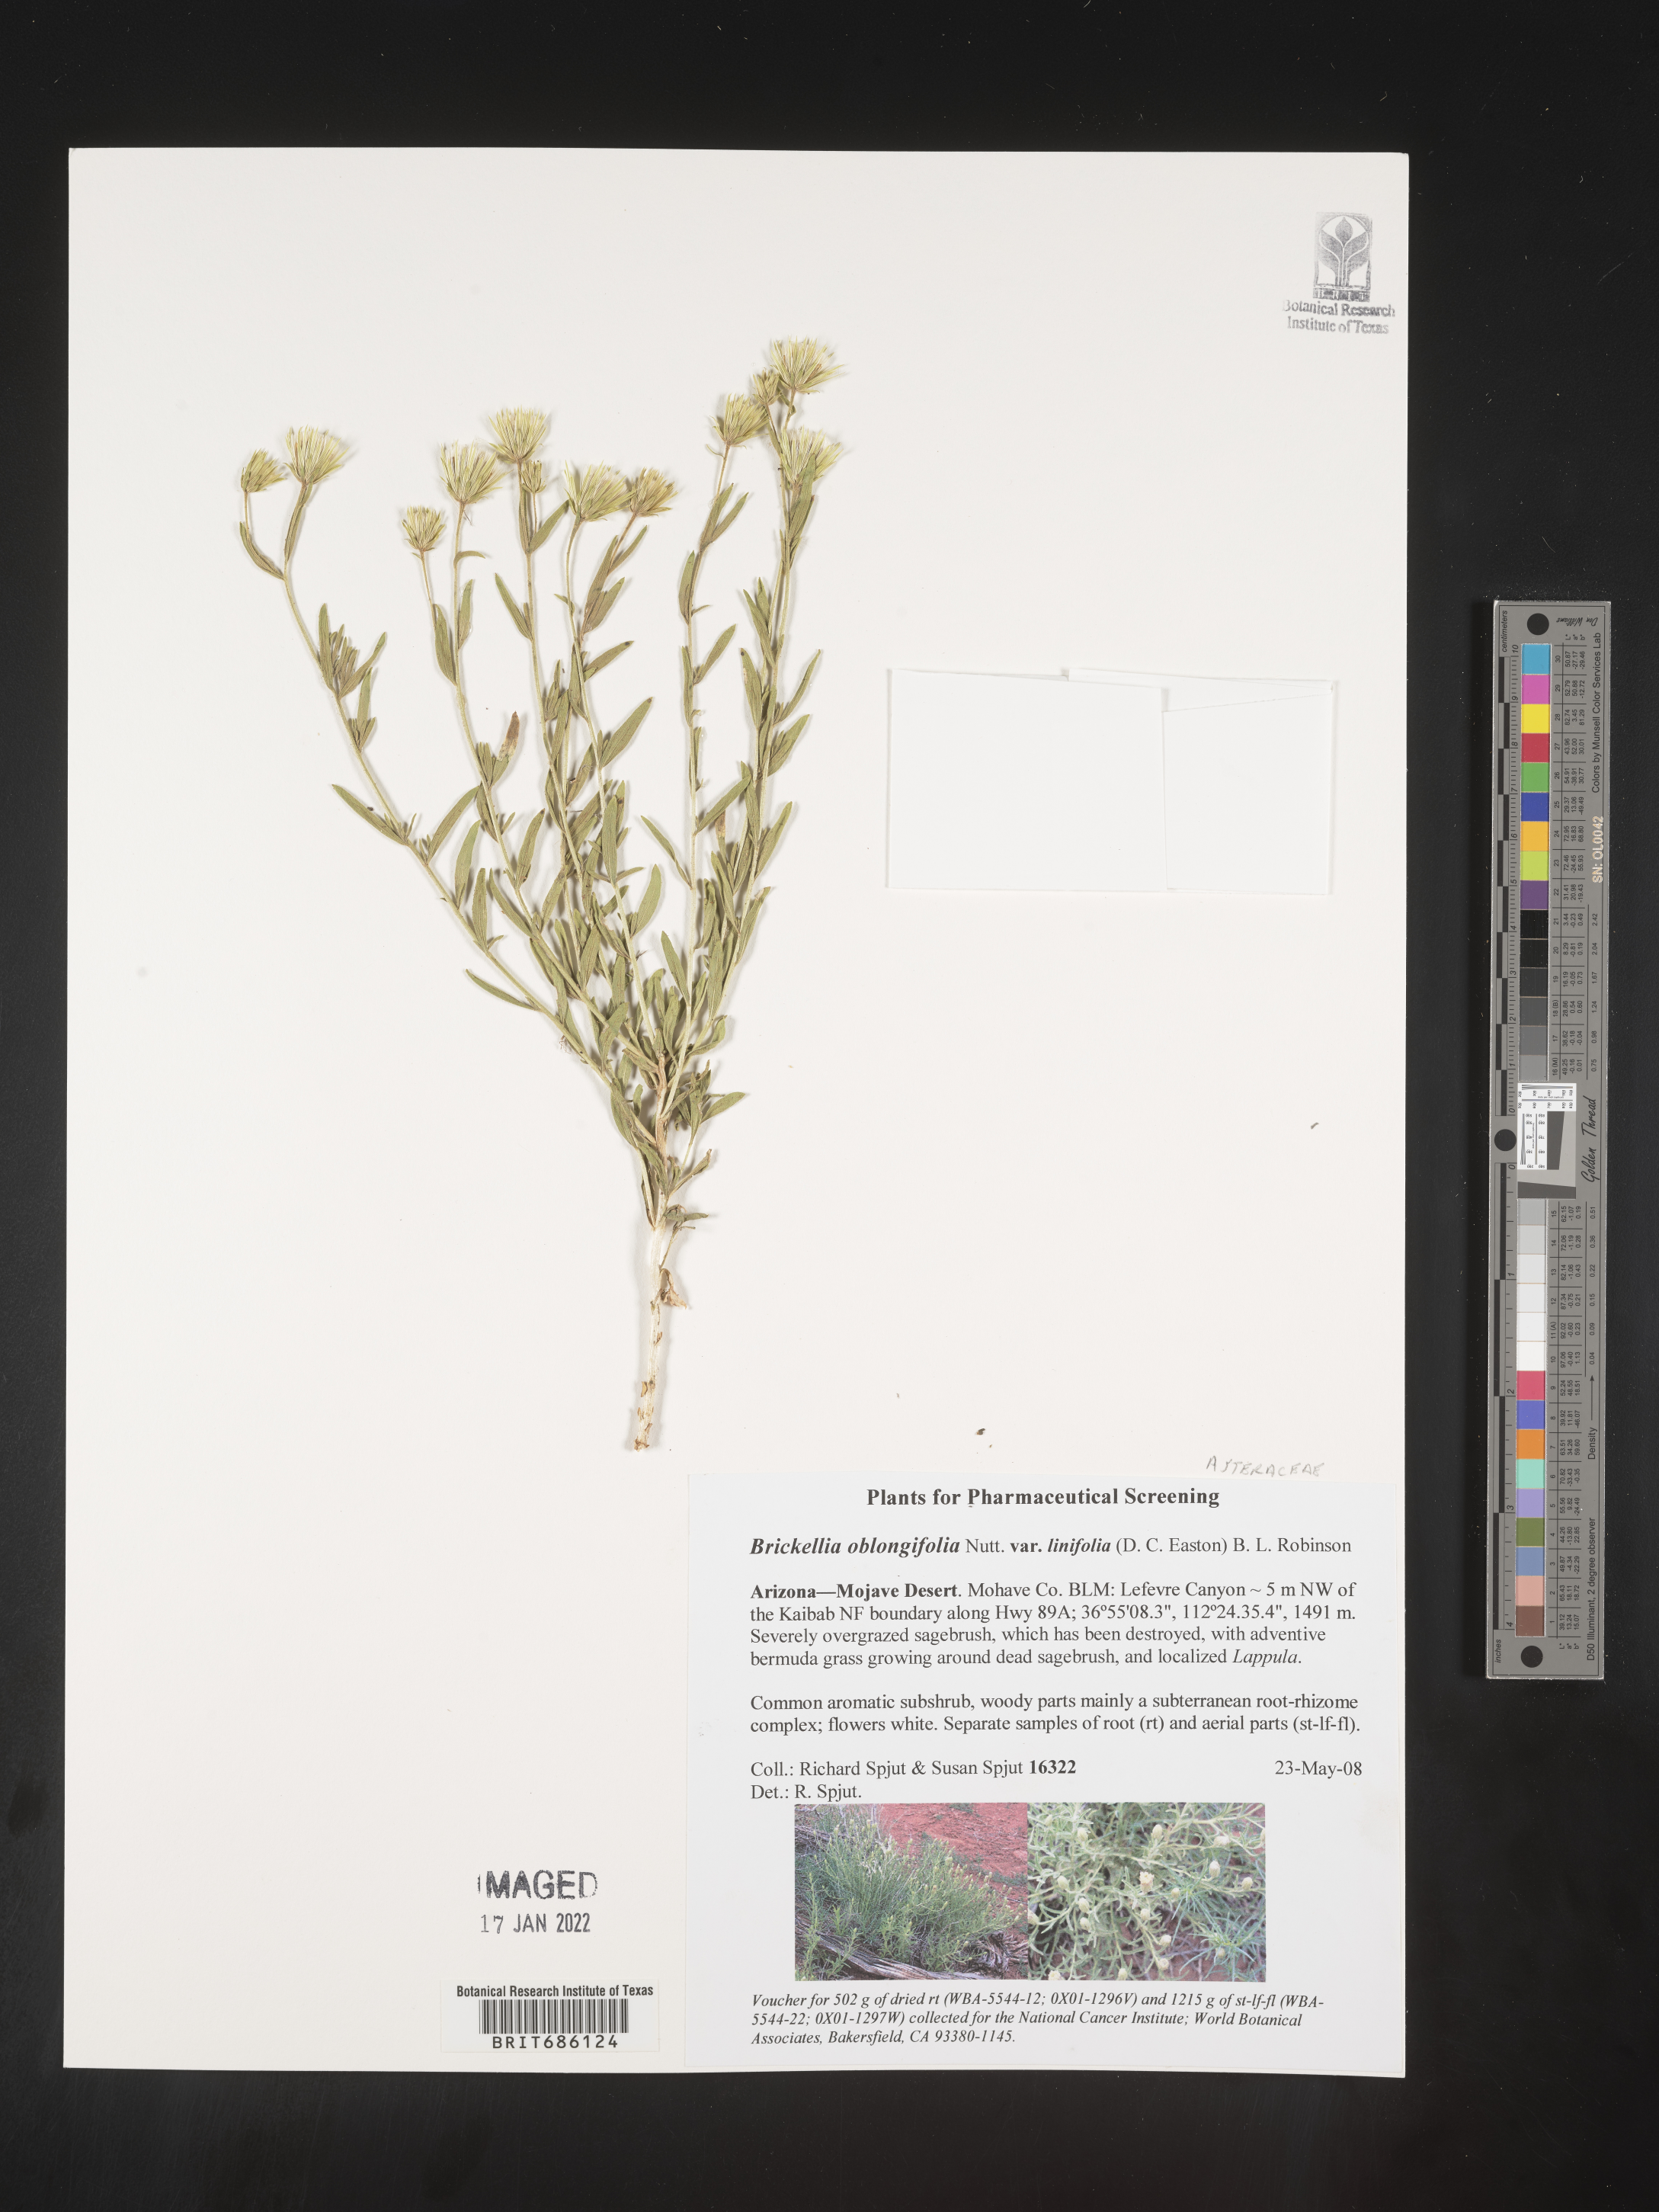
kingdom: Plantae
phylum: Tracheophyta
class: Magnoliopsida
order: Asterales
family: Asteraceae
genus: Brickellia
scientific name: Brickellia oblongifolia
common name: Mojave brickellbush
